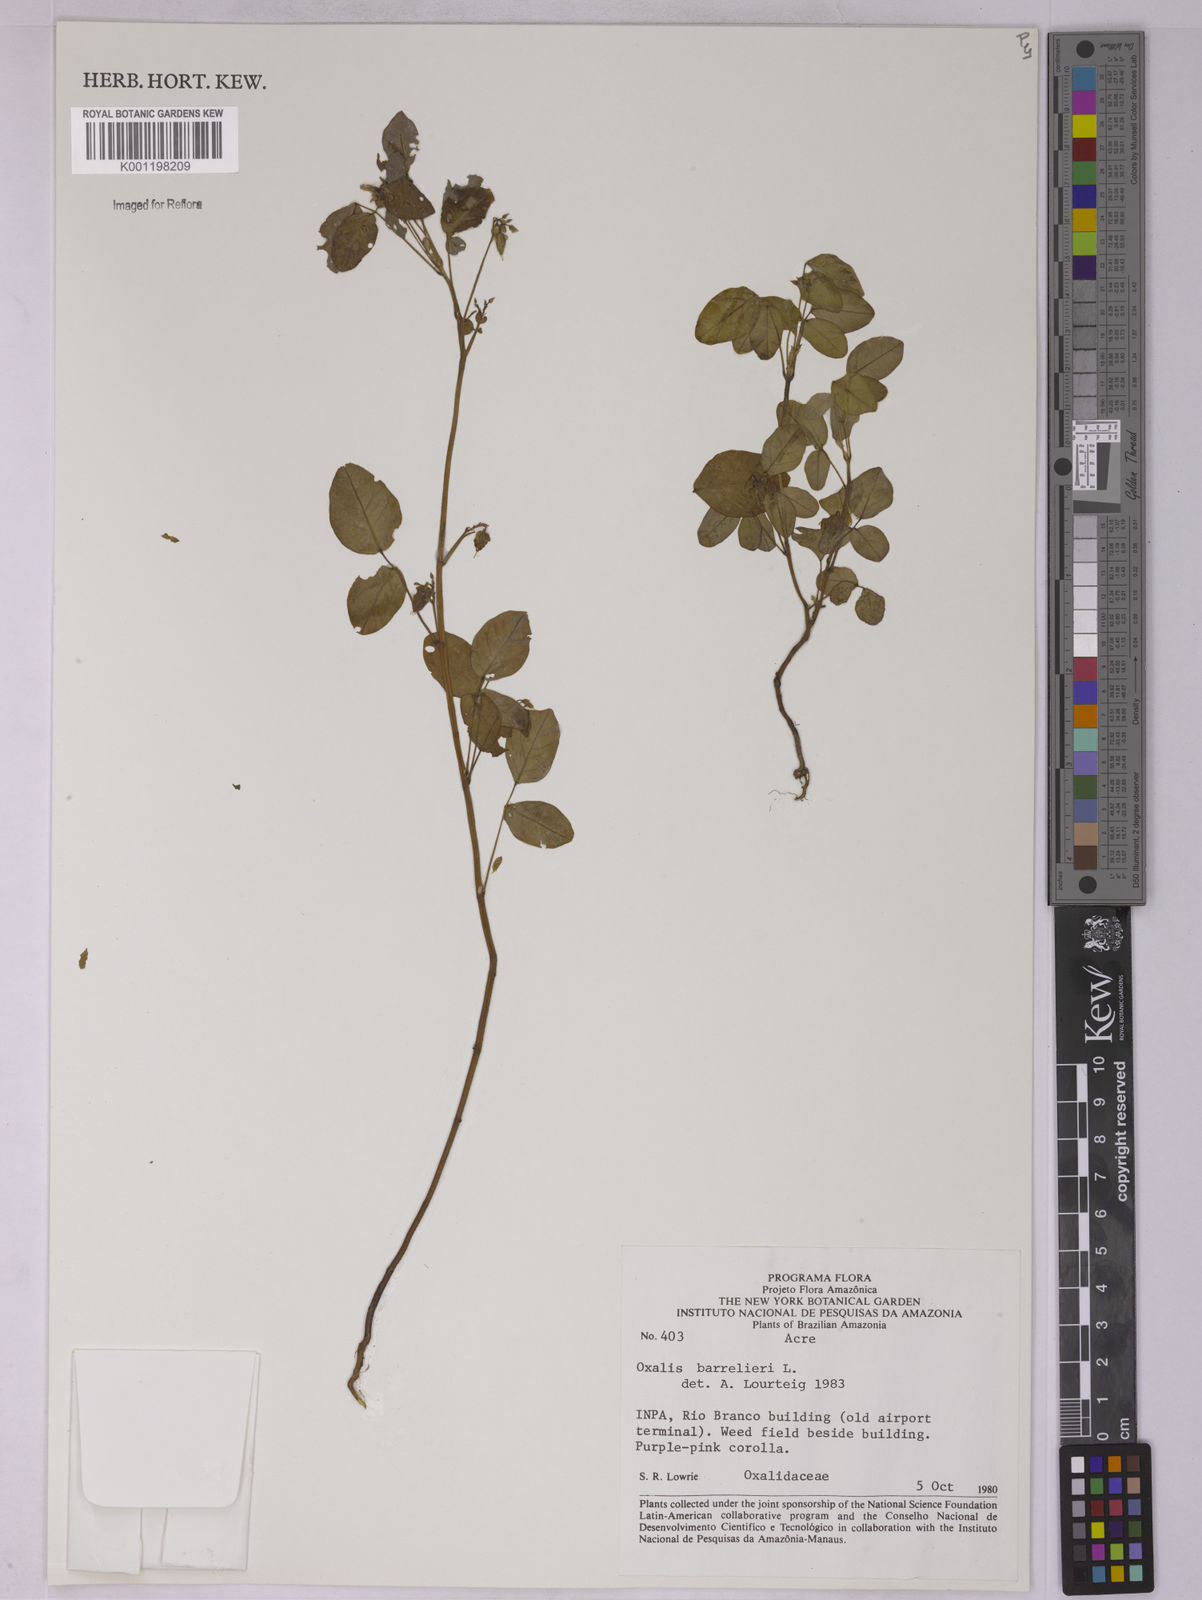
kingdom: Plantae
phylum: Tracheophyta
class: Magnoliopsida
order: Oxalidales
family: Oxalidaceae
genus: Oxalis
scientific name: Oxalis barrelieri
